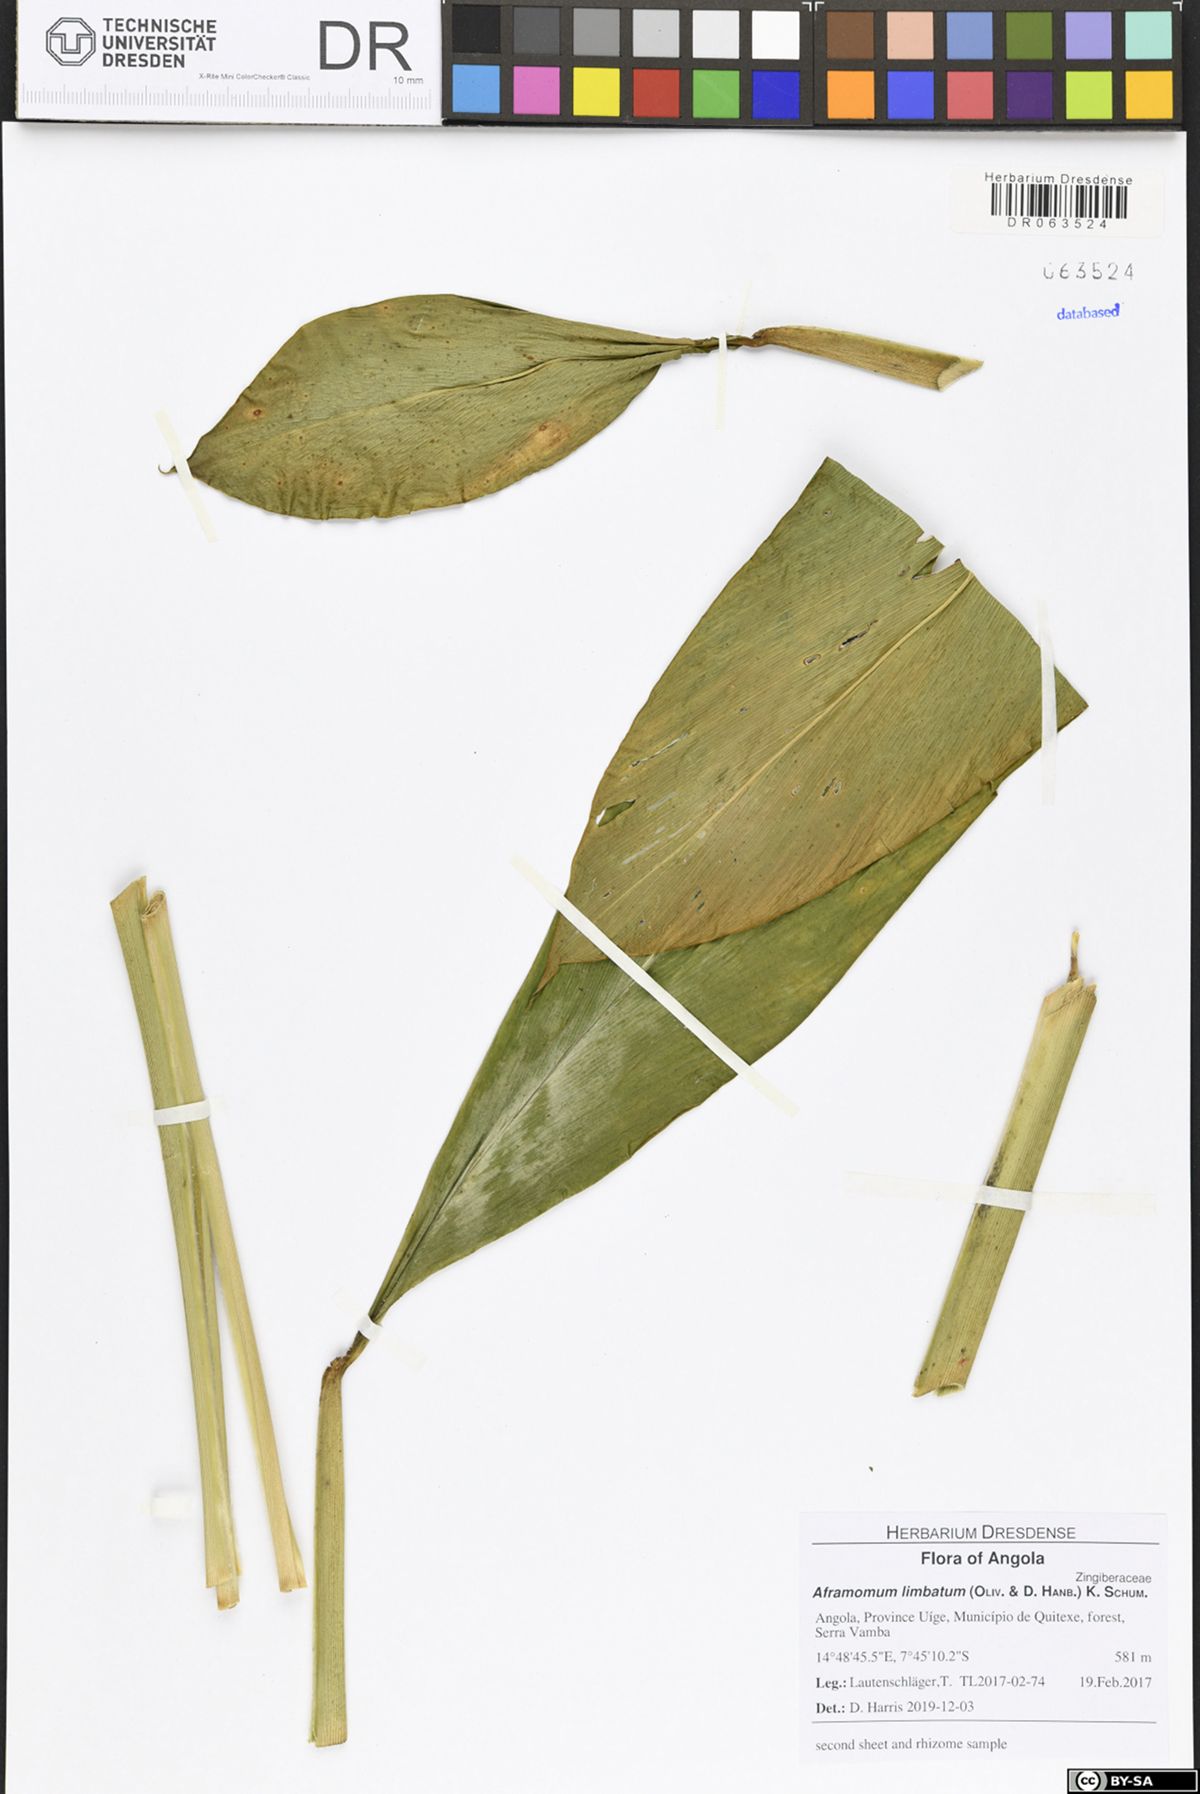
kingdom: Plantae
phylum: Tracheophyta
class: Liliopsida
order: Zingiberales
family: Zingiberaceae
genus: Aframomum
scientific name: Aframomum limbatum
